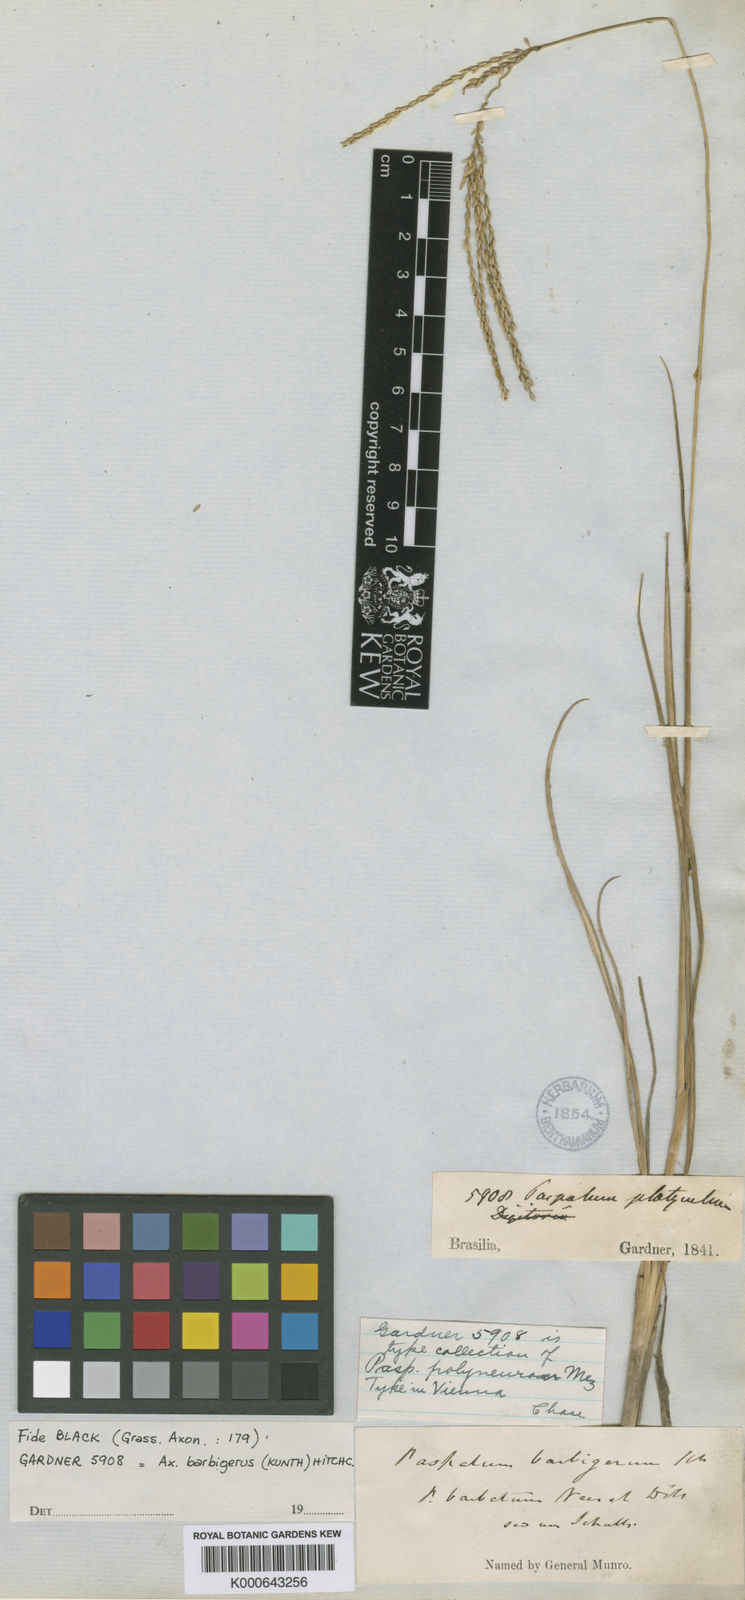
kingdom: Plantae
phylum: Tracheophyta
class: Liliopsida
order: Poales
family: Poaceae
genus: Axonopus
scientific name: Axonopus
